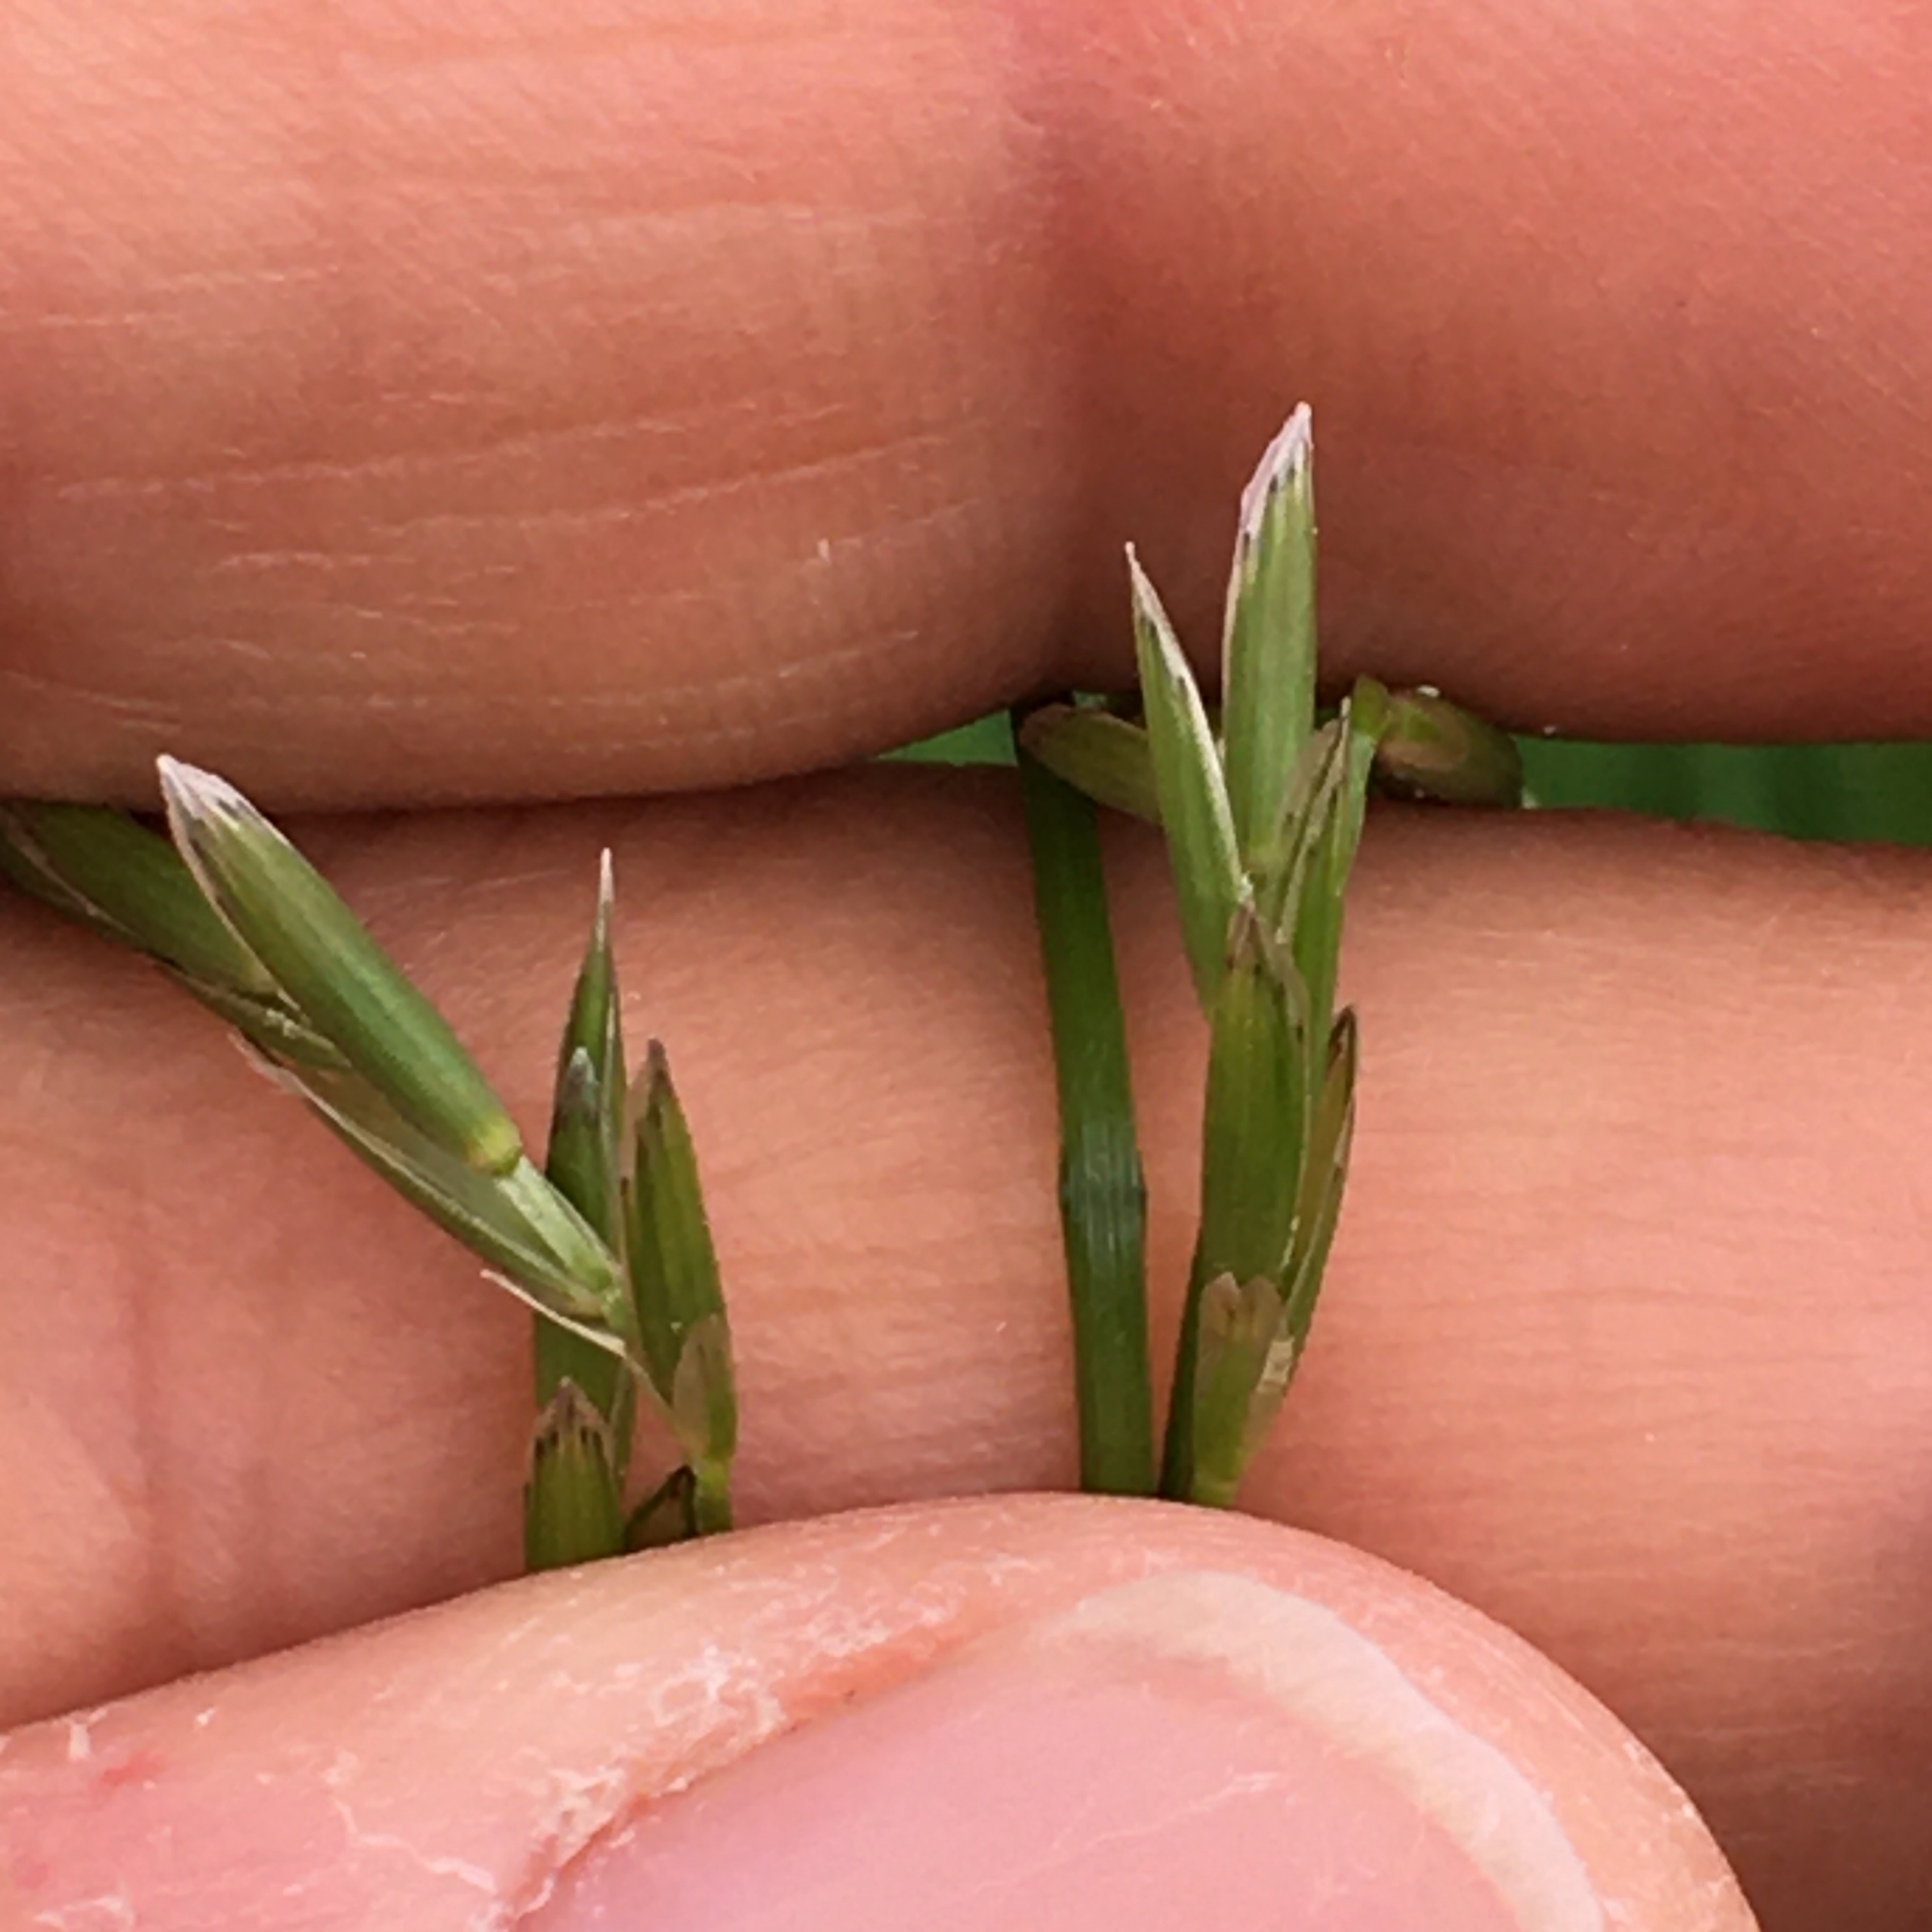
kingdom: Plantae
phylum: Tracheophyta
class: Liliopsida
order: Poales
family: Poaceae
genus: Glyceria
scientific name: Glyceria fluitans
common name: Manna-sødgræs
